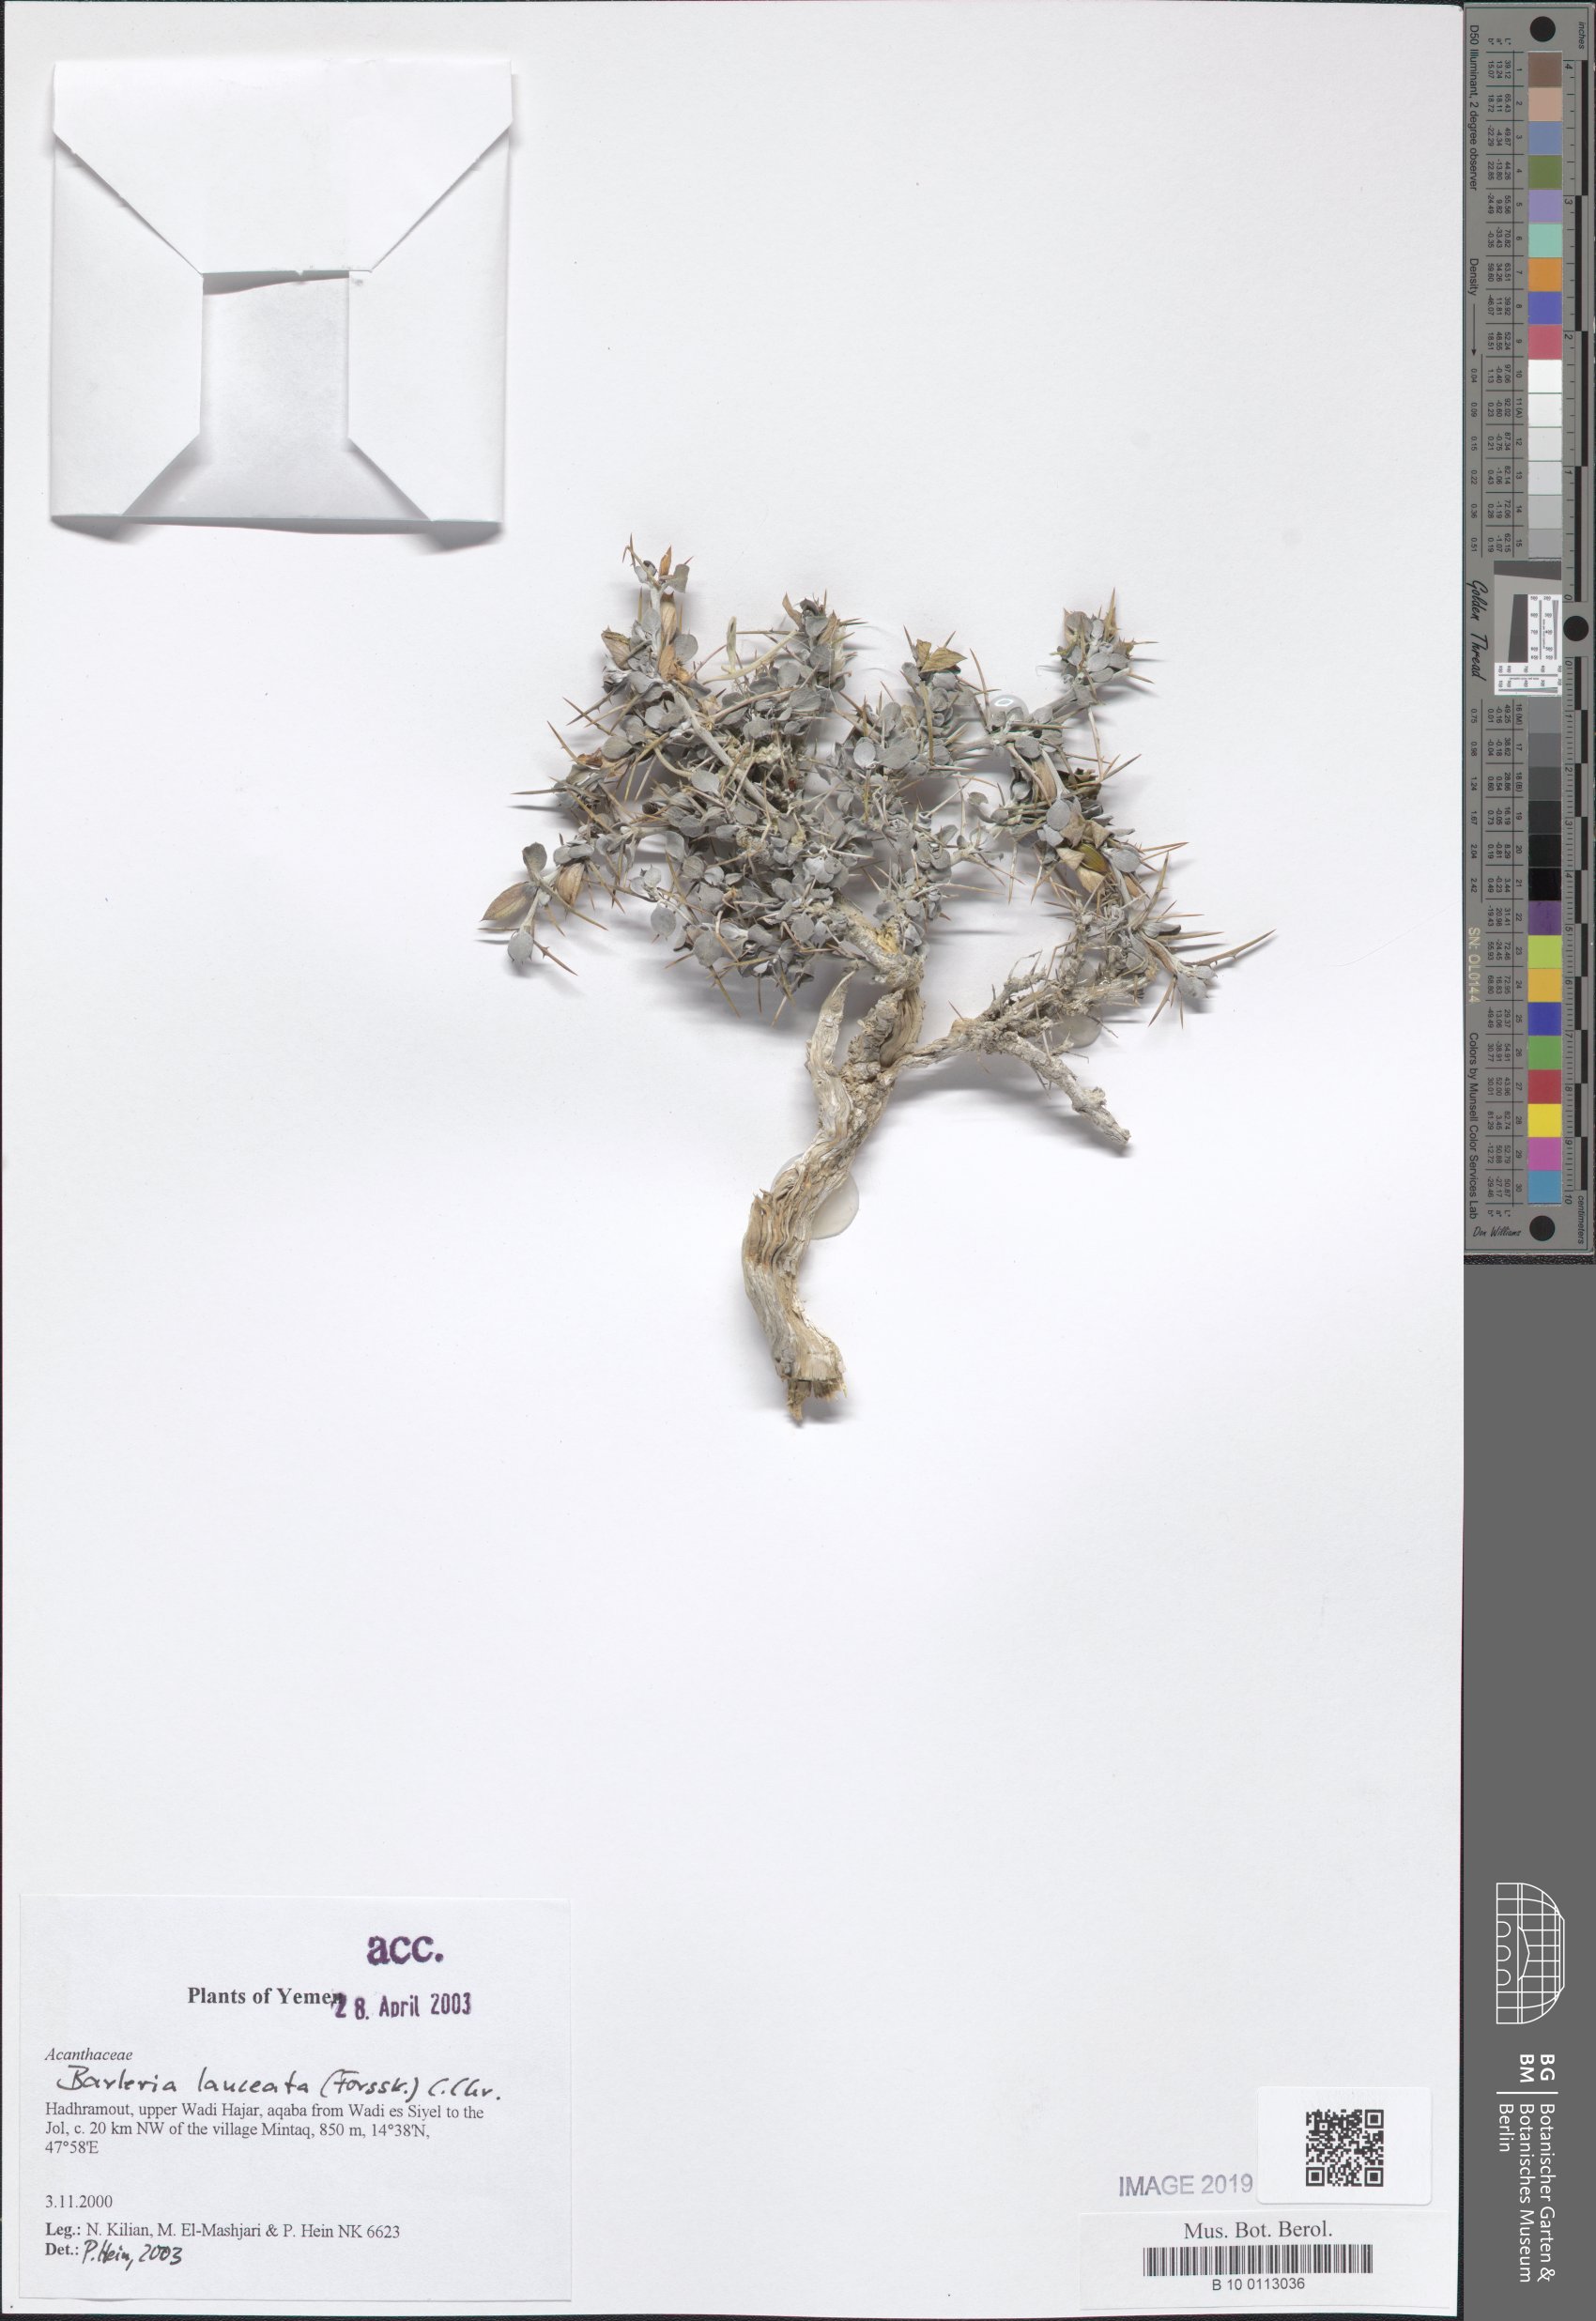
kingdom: Plantae
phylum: Tracheophyta
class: Magnoliopsida
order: Lamiales
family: Acanthaceae
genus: Barleria
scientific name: Barleria lanceata
